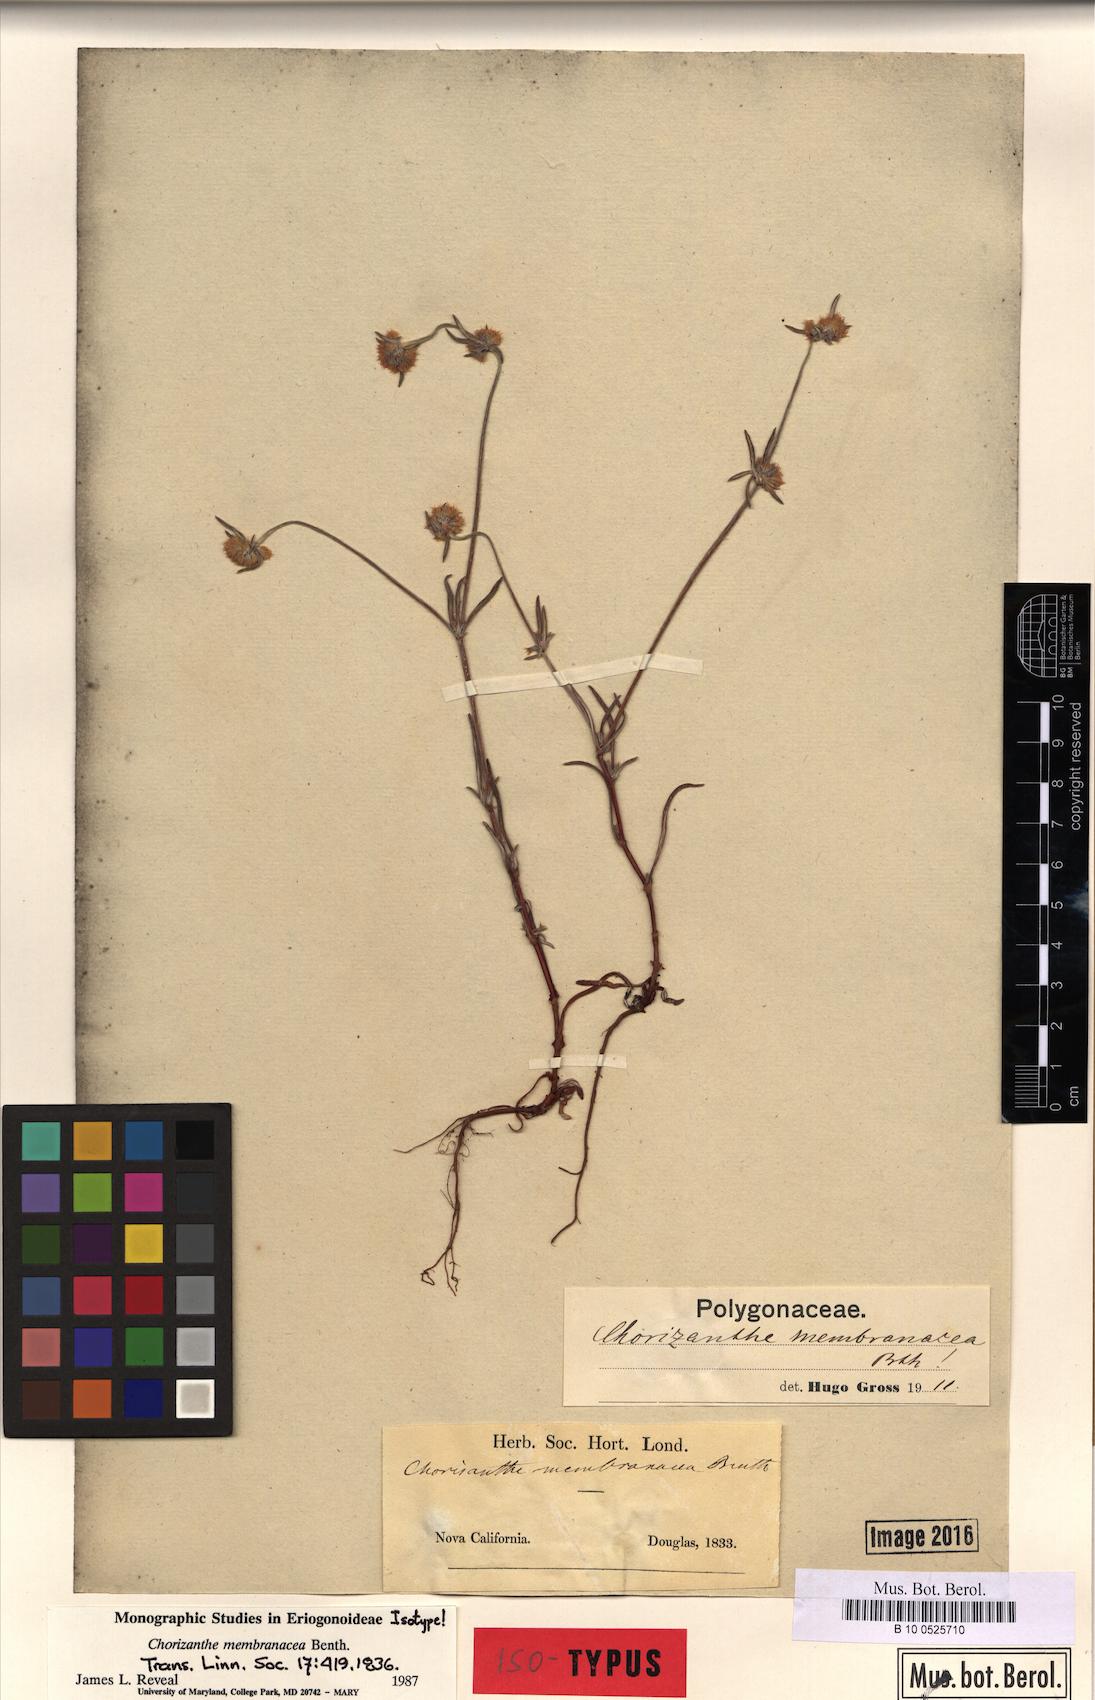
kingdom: Plantae
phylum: Tracheophyta
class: Magnoliopsida
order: Caryophyllales
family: Polygonaceae
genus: Chorizanthe
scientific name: Chorizanthe membranacea
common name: Pink spineflower
